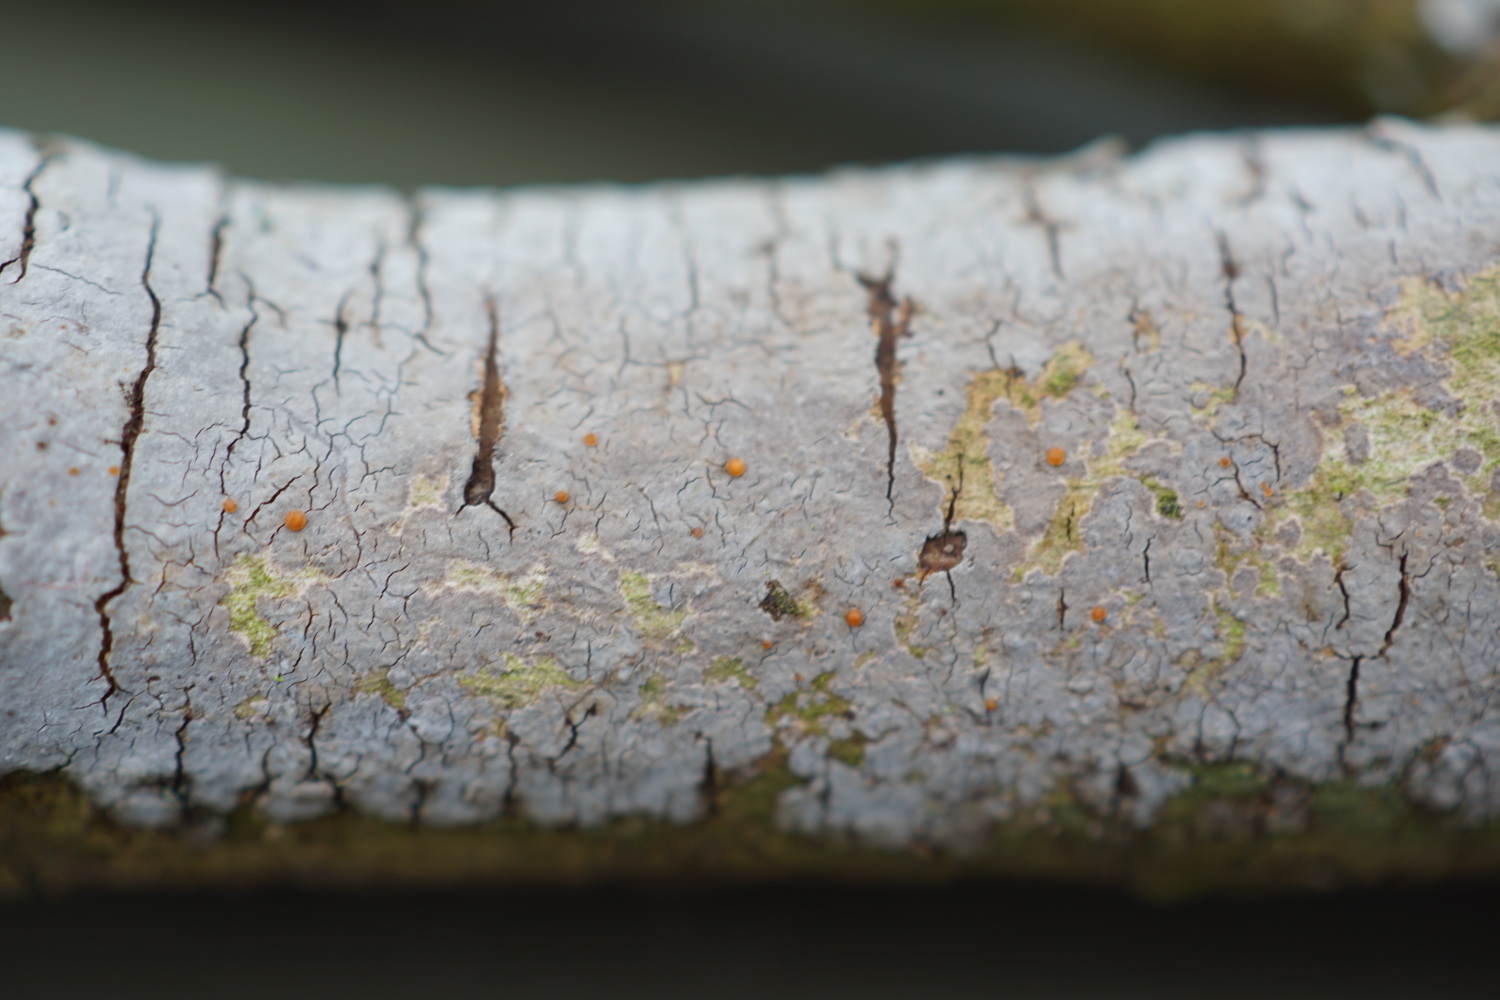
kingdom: Fungi
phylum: Basidiomycota
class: Tremellomycetes
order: Tremellales
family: Tremellaceae
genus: Tremella
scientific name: Tremella versicolor
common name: voksskind-bævresvamp
